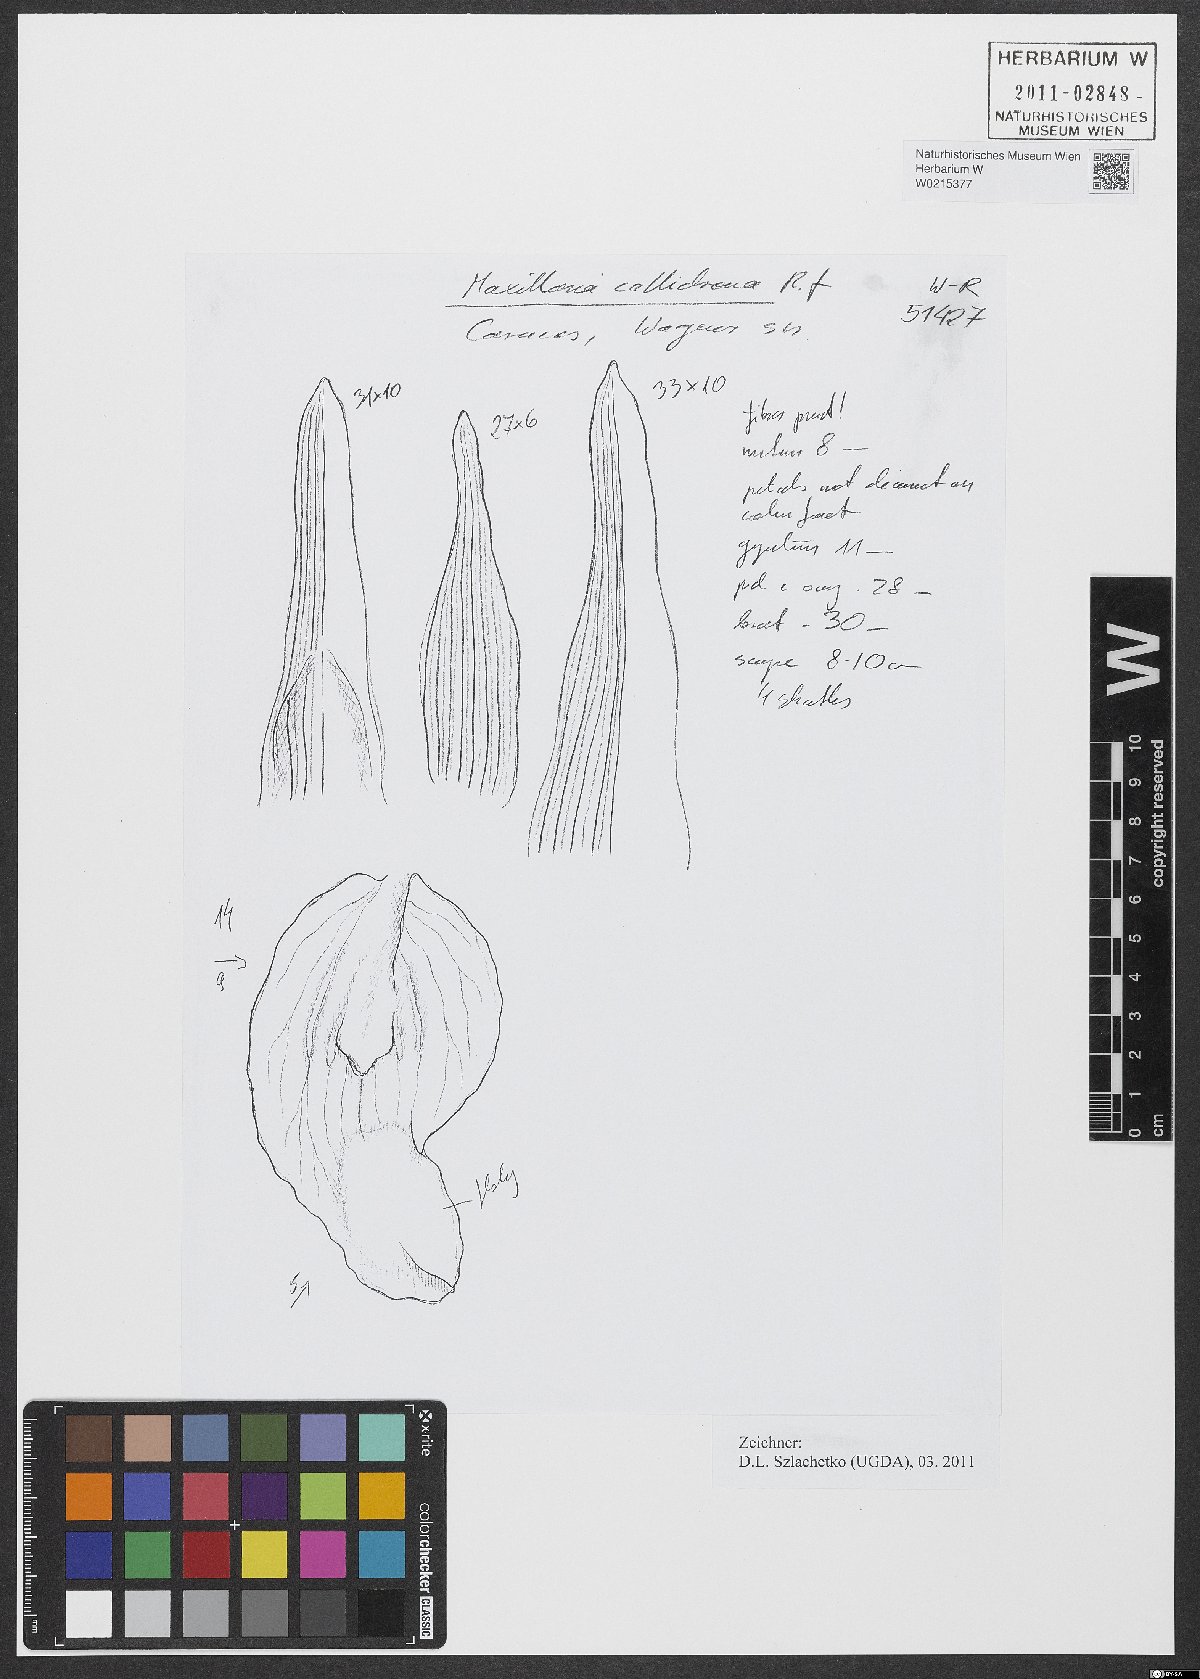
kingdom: Plantae
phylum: Tracheophyta
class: Liliopsida
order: Asparagales
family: Orchidaceae
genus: Maxillaria
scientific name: Maxillaria callichroma
